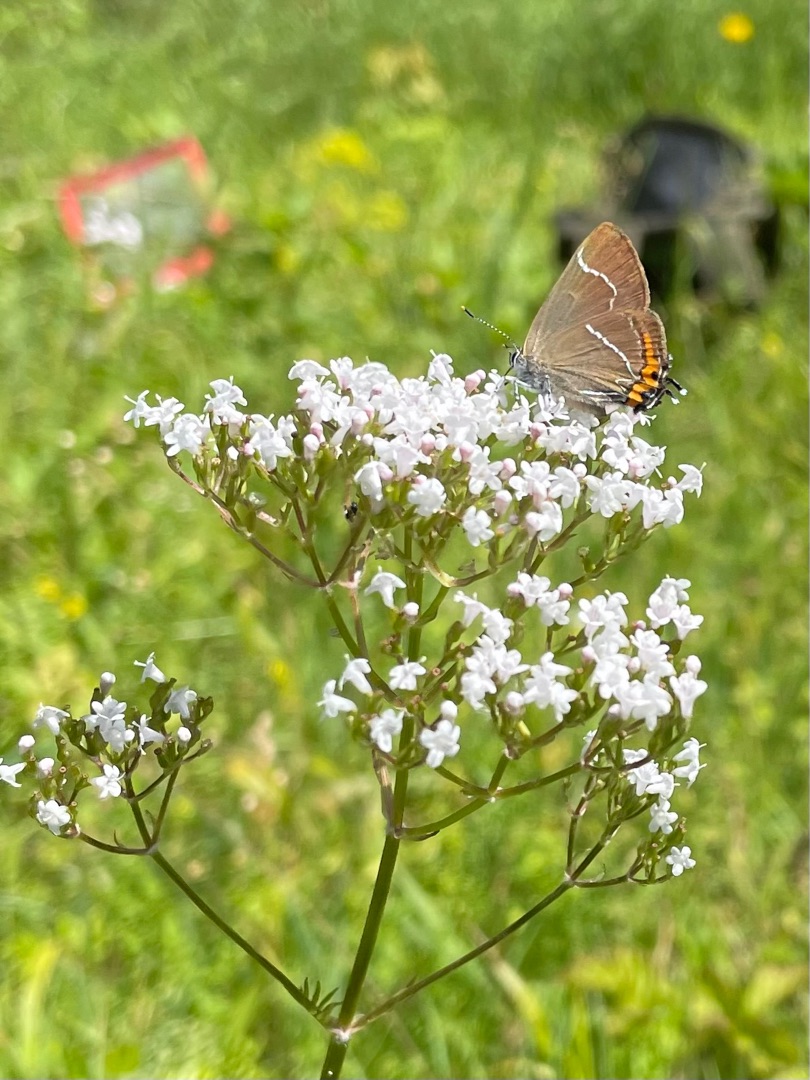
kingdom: Animalia
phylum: Arthropoda
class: Insecta
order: Lepidoptera
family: Lycaenidae
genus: Satyrium
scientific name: Satyrium w-album
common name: Det hvide W
